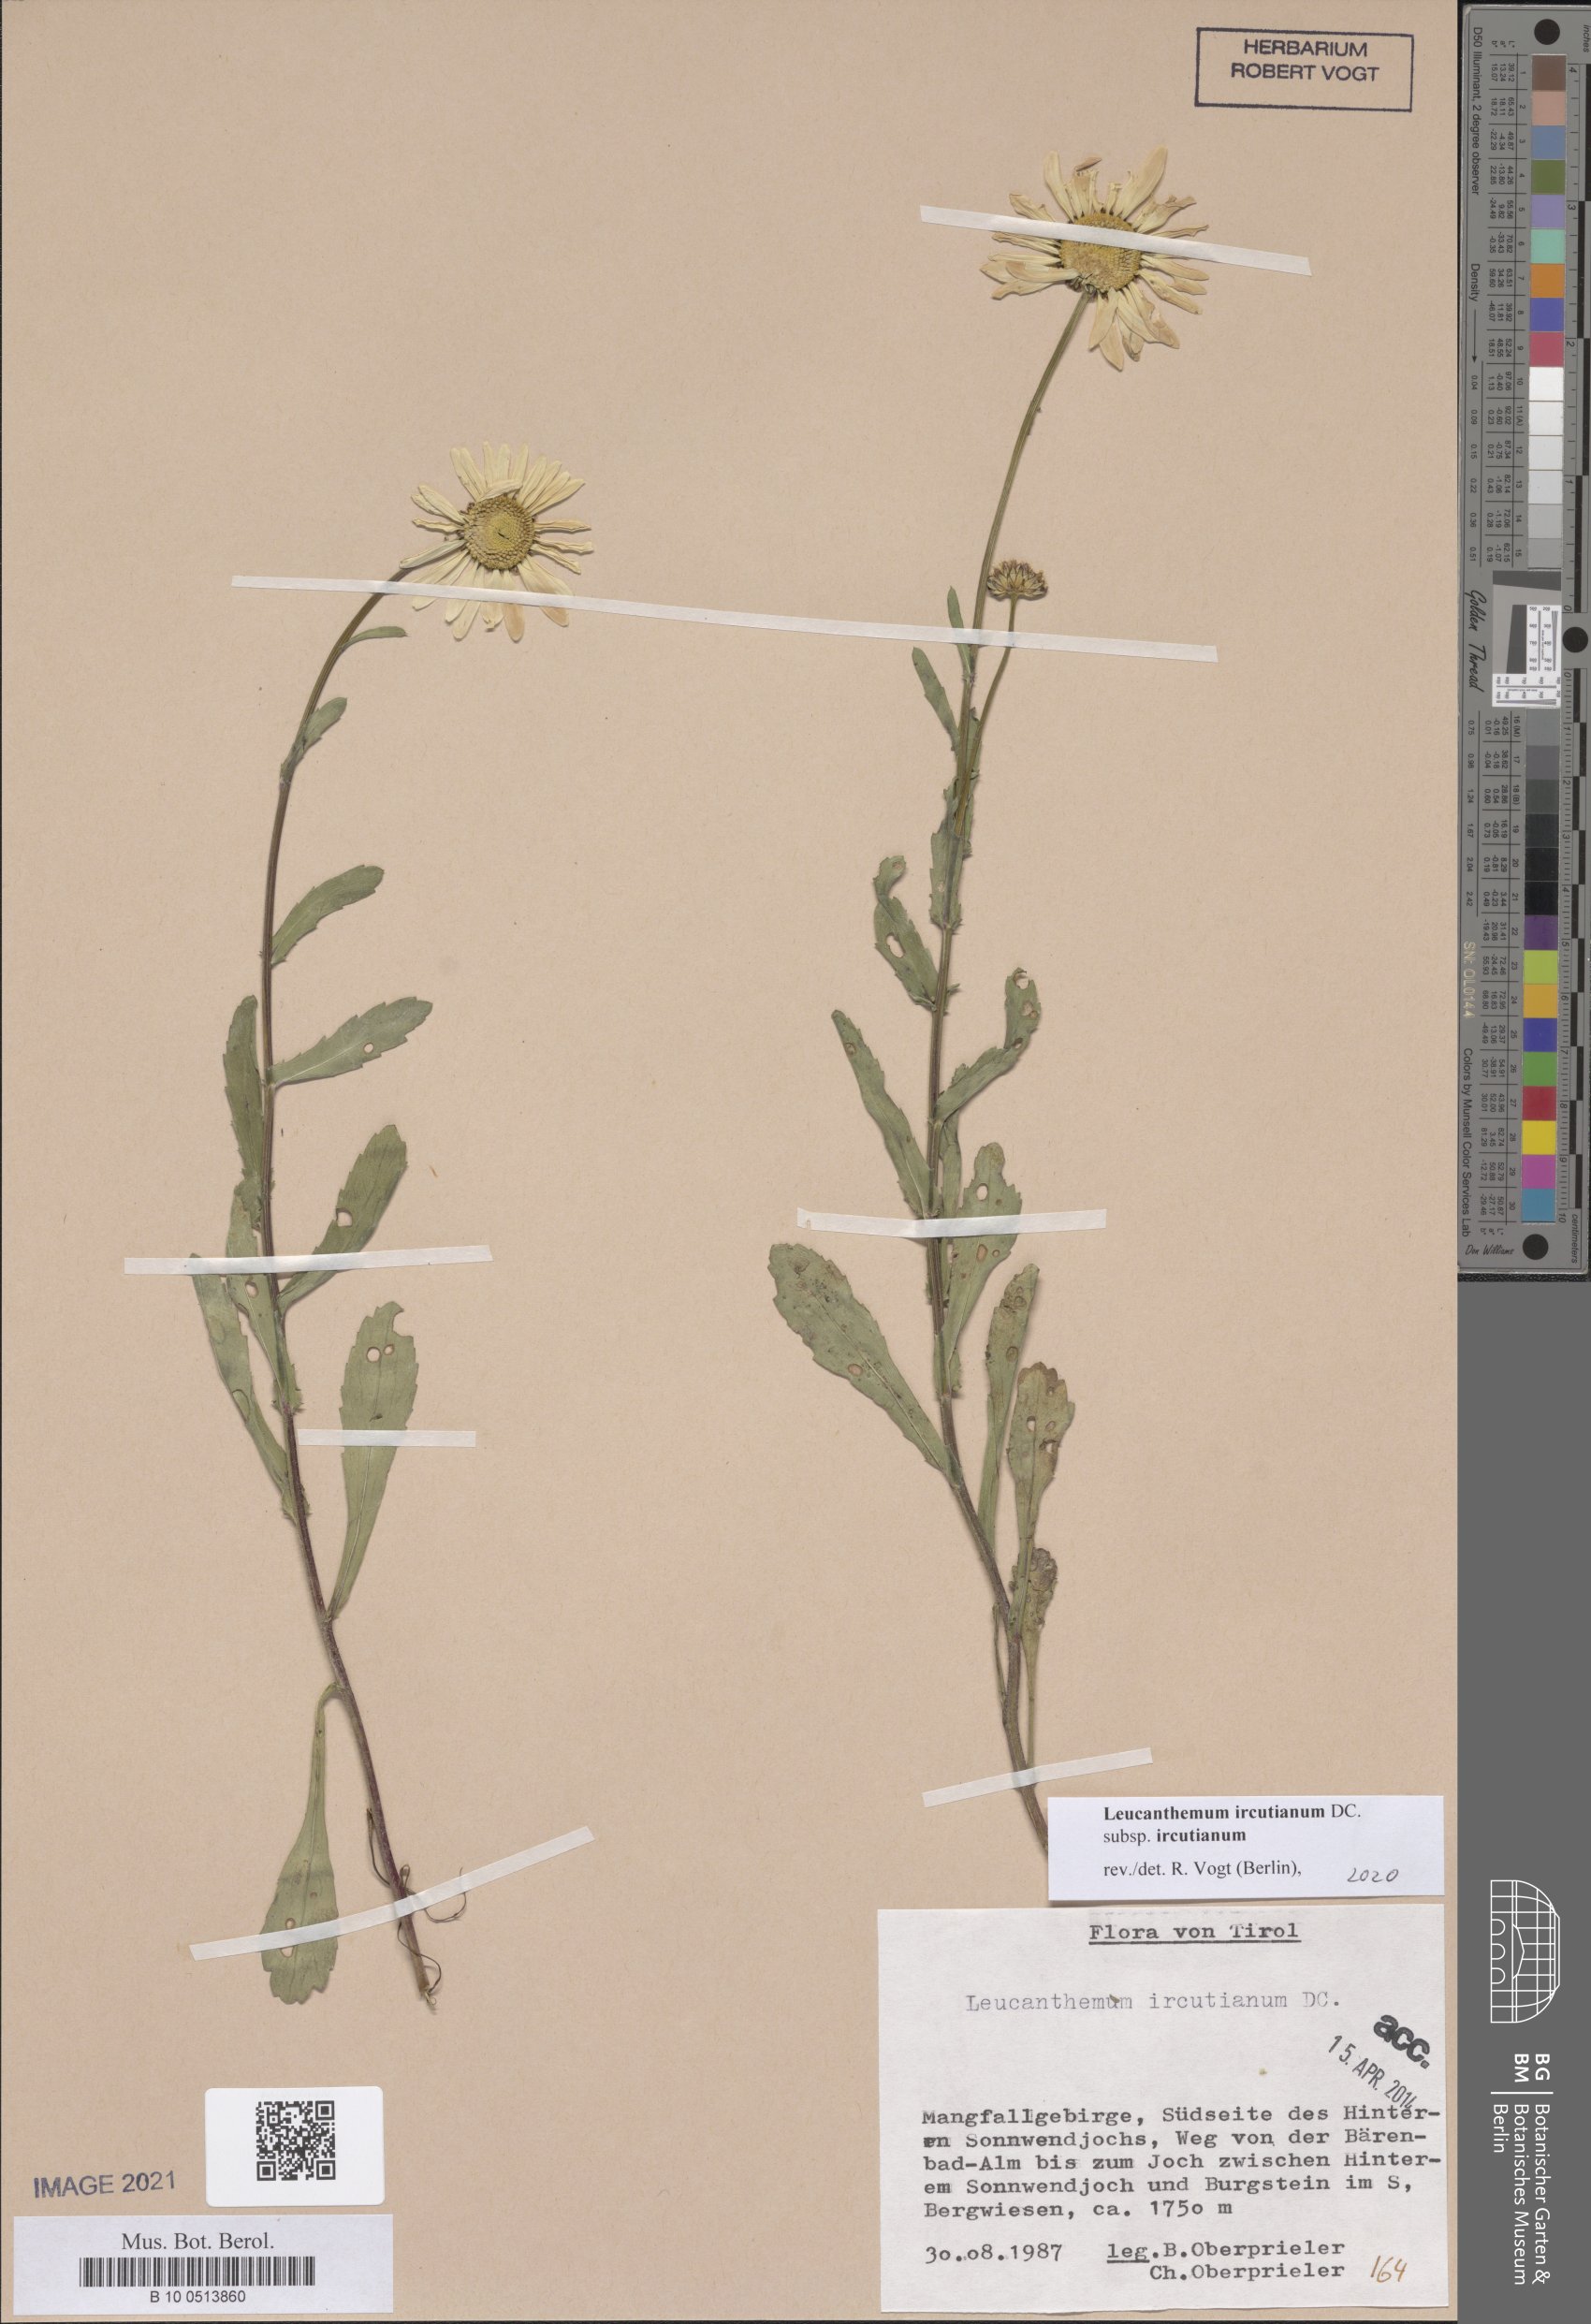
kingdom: Plantae
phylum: Tracheophyta
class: Magnoliopsida
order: Asterales
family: Asteraceae
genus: Leucanthemum
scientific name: Leucanthemum ircutianum
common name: Daisy
